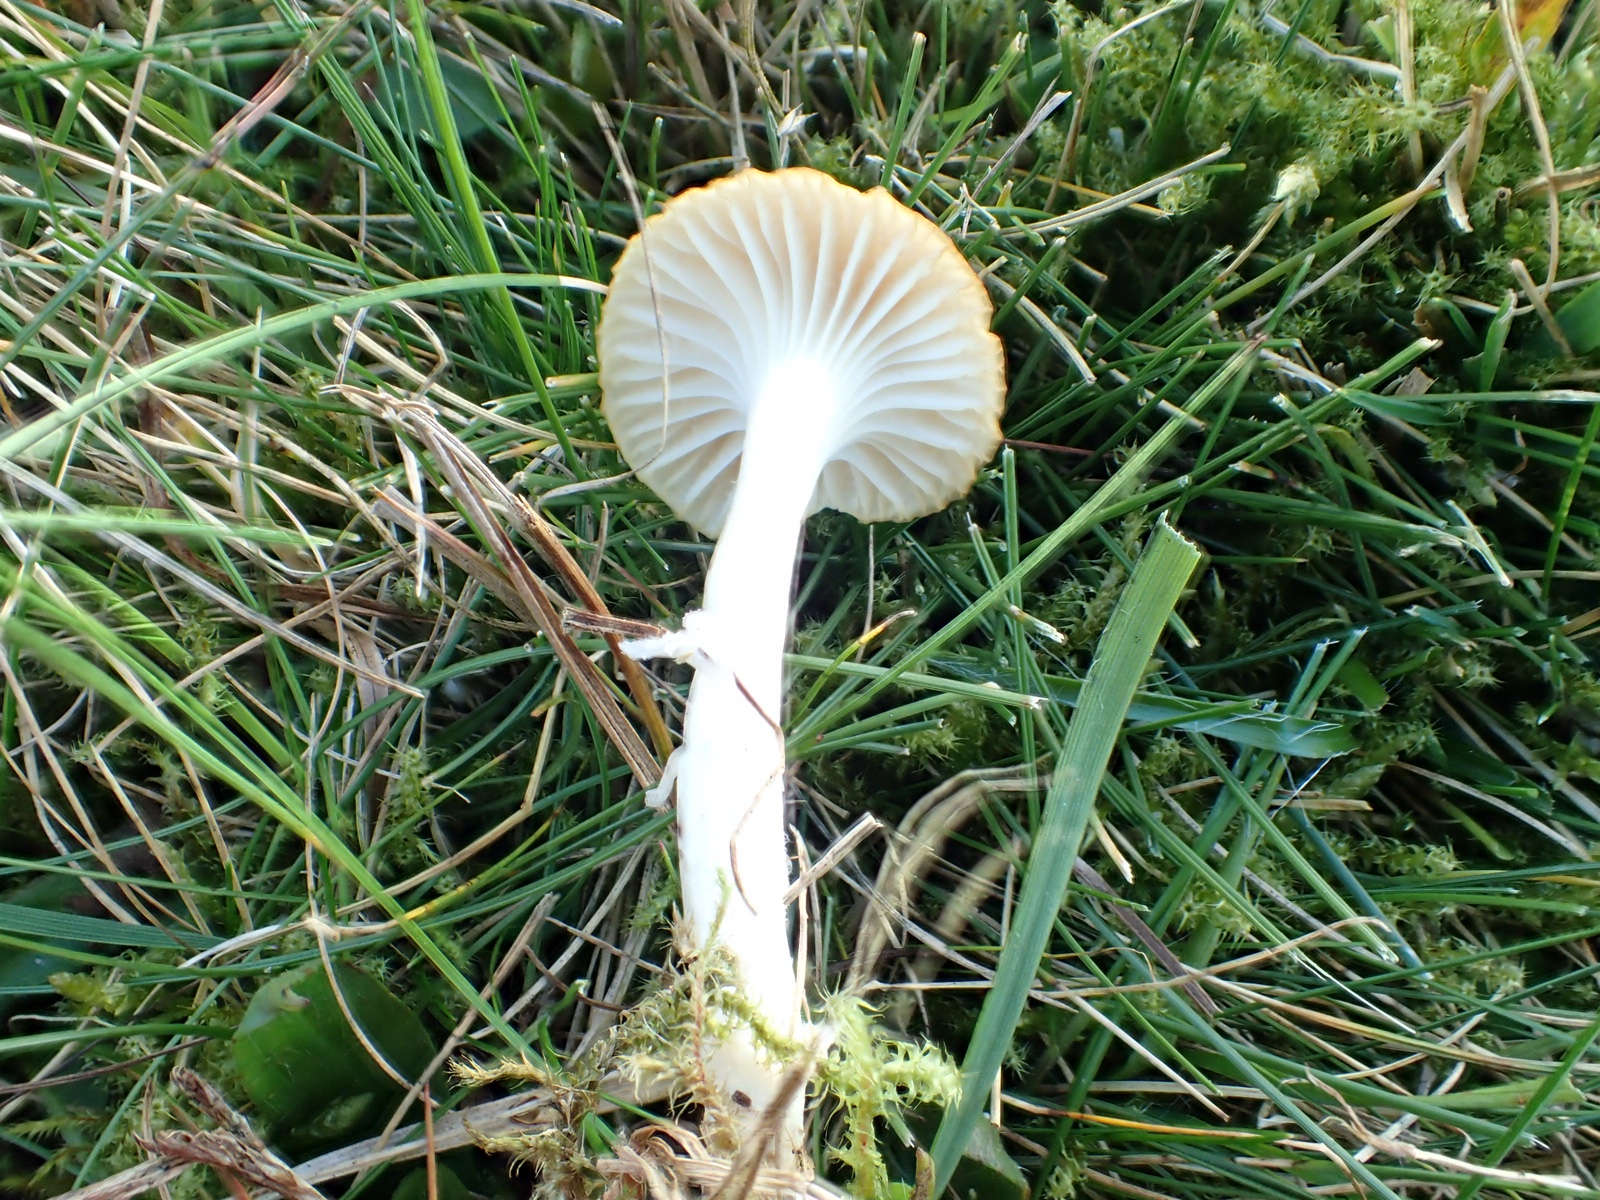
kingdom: Fungi
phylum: Basidiomycota
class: Agaricomycetes
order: Agaricales
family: Hygrophoraceae
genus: Cuphophyllus
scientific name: Cuphophyllus virgineus
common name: snehvid vokshat
